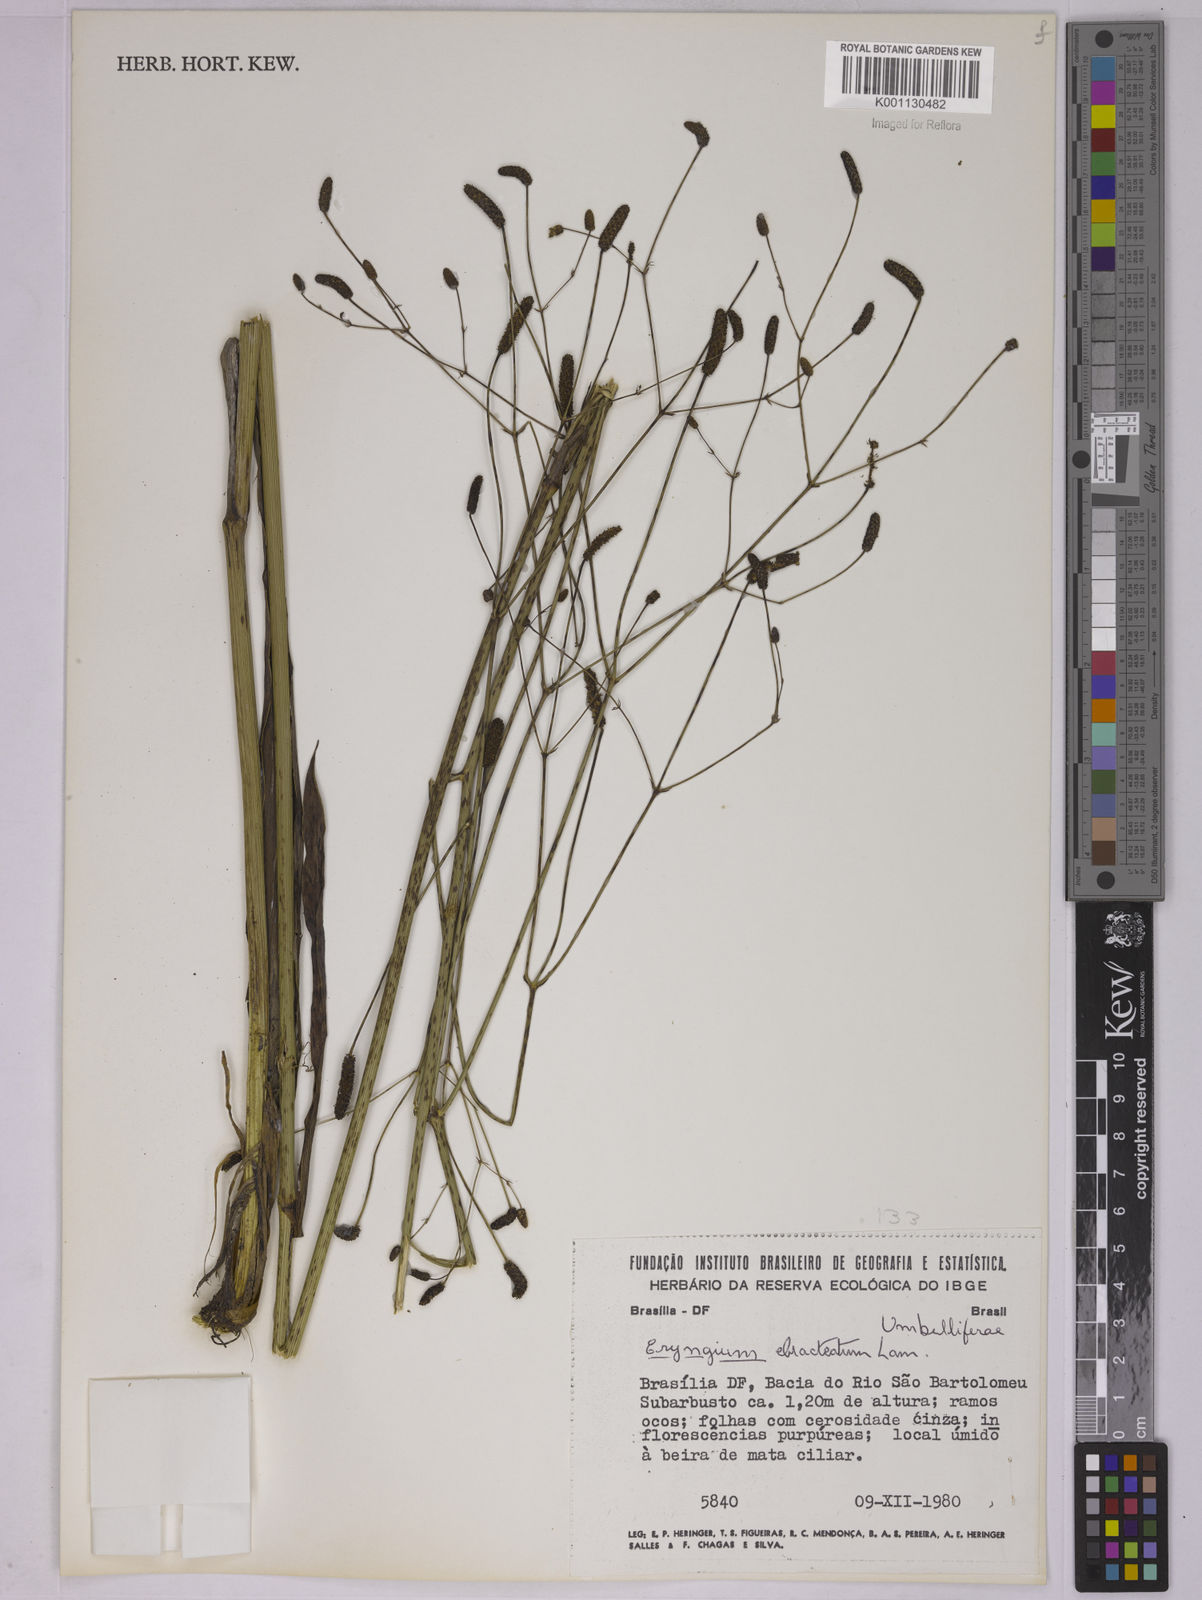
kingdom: Plantae
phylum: Tracheophyta
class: Magnoliopsida
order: Apiales
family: Apiaceae
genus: Eryngium
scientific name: Eryngium ebracteatum
